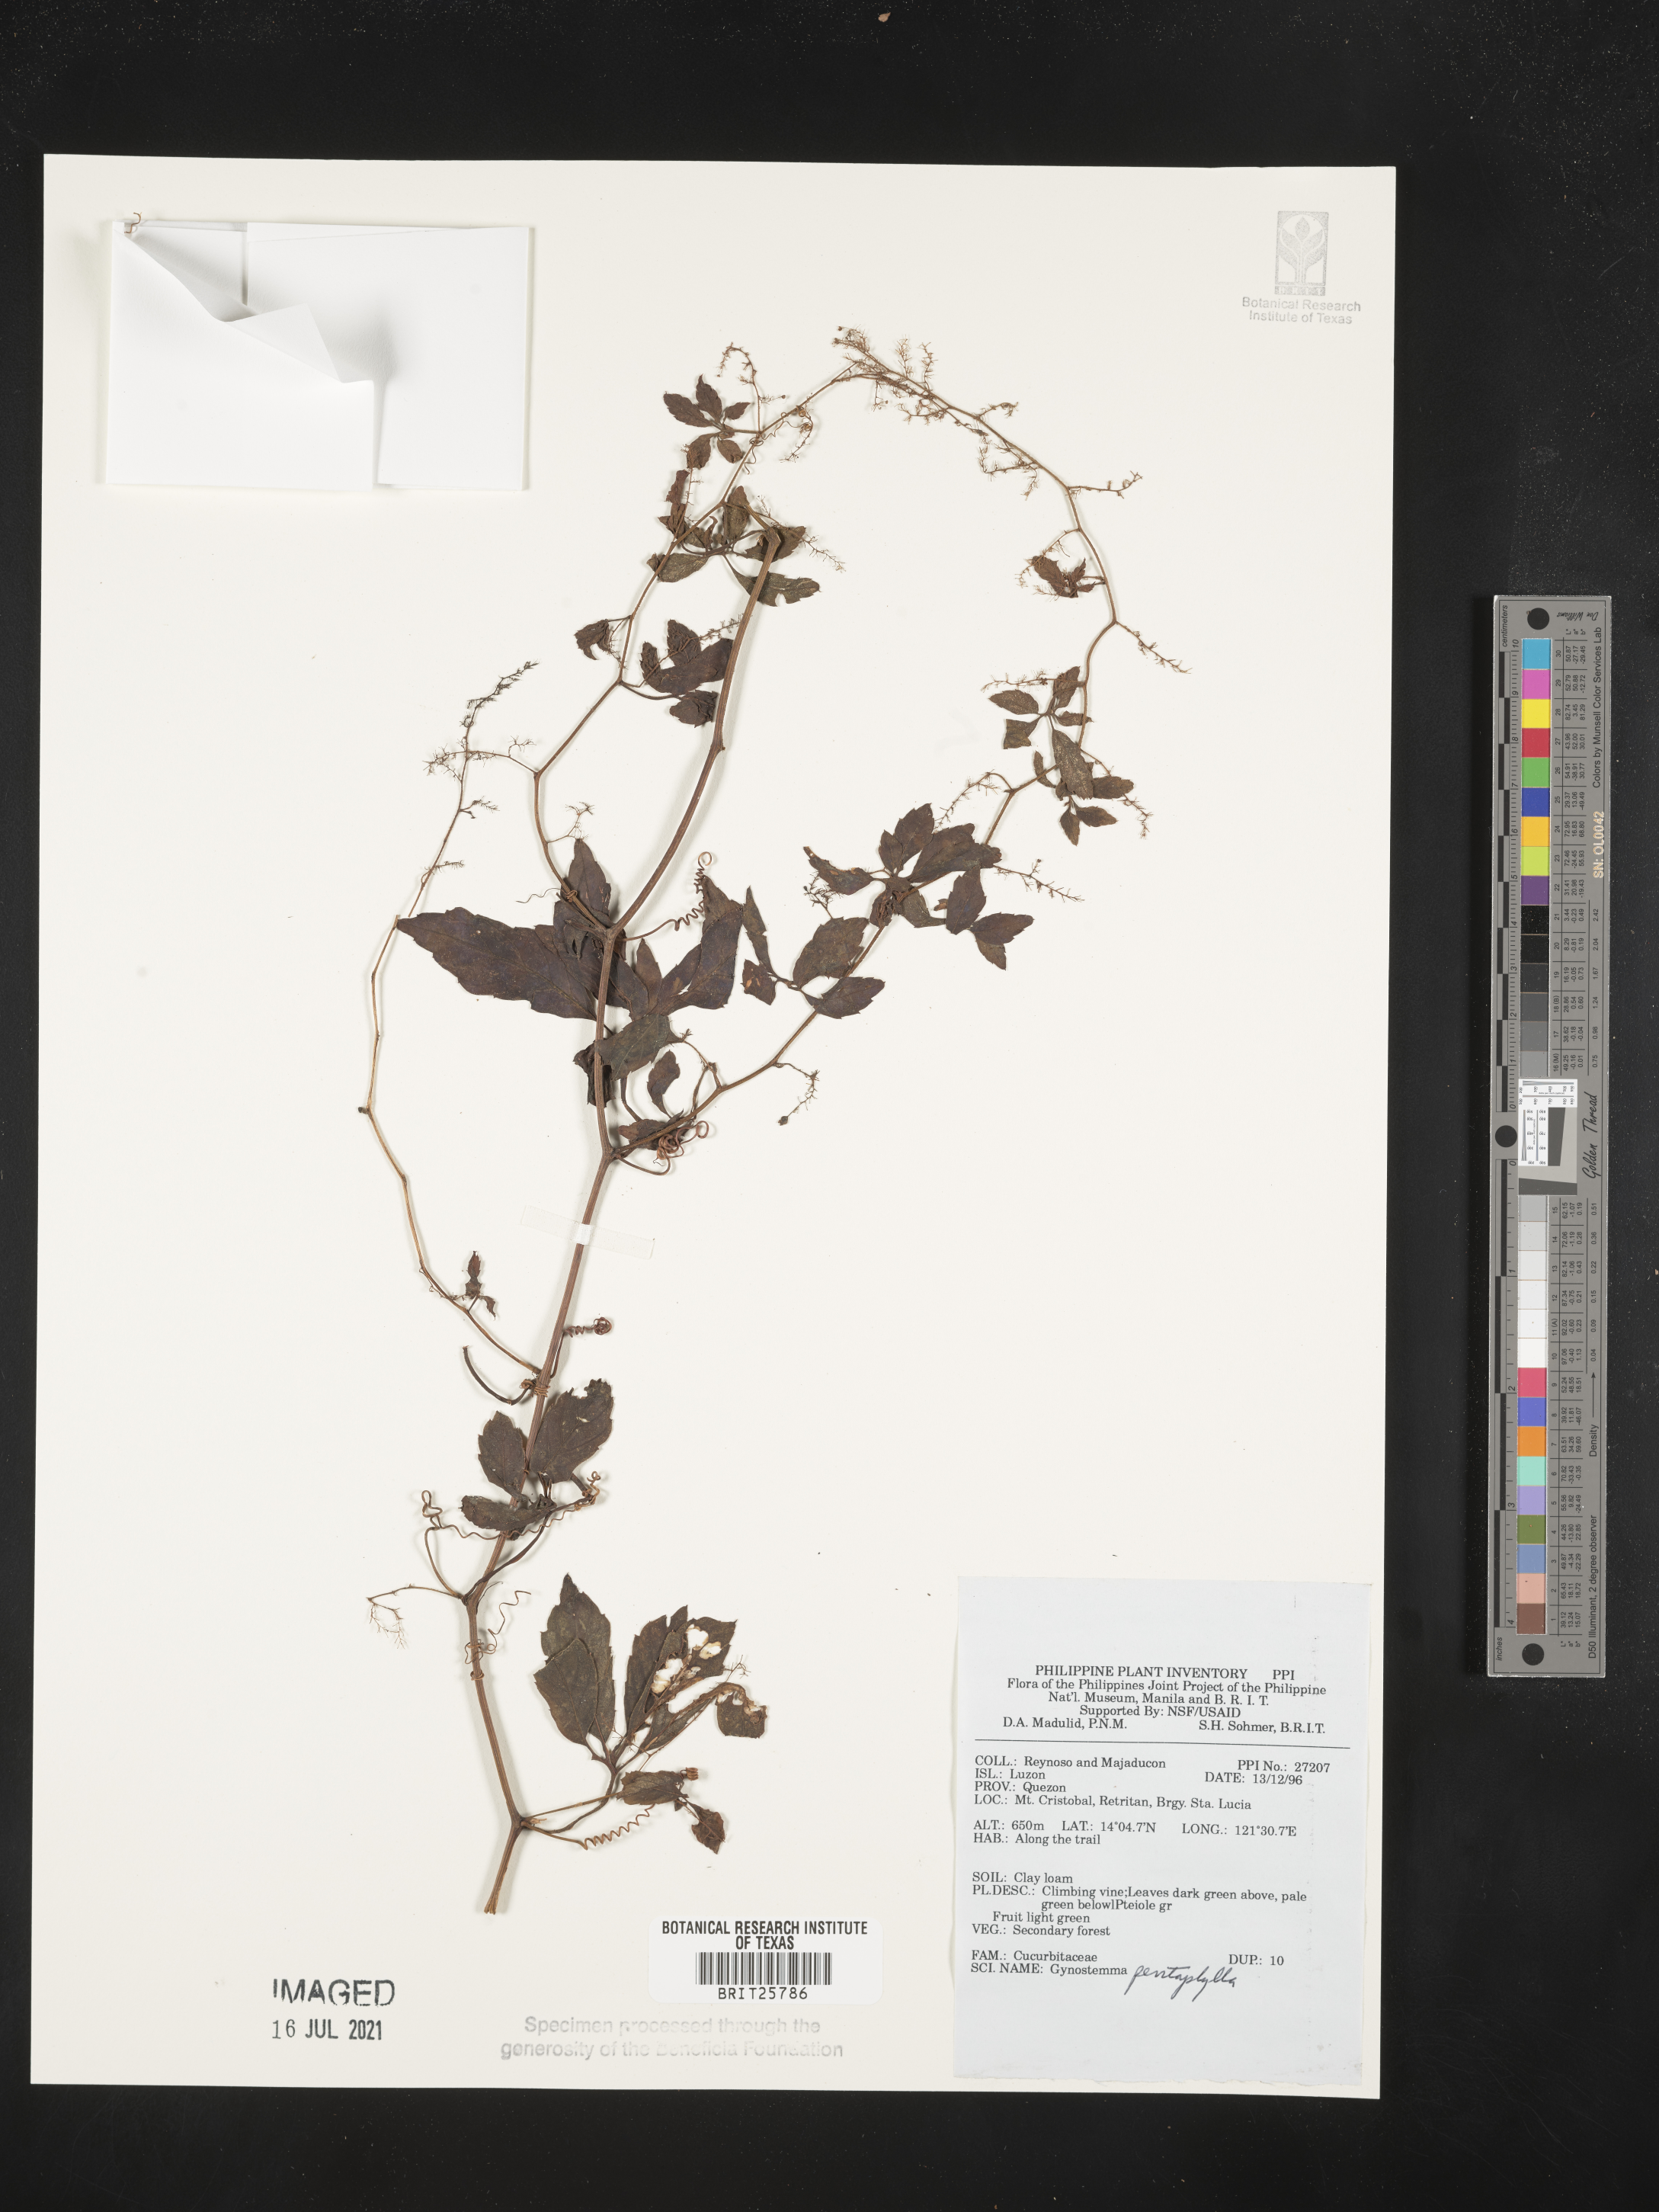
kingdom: Plantae
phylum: Tracheophyta
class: Magnoliopsida
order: Cucurbitales
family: Cucurbitaceae
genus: Gynostemma
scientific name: Gynostemma pentaphyllum
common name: Gynostemma
